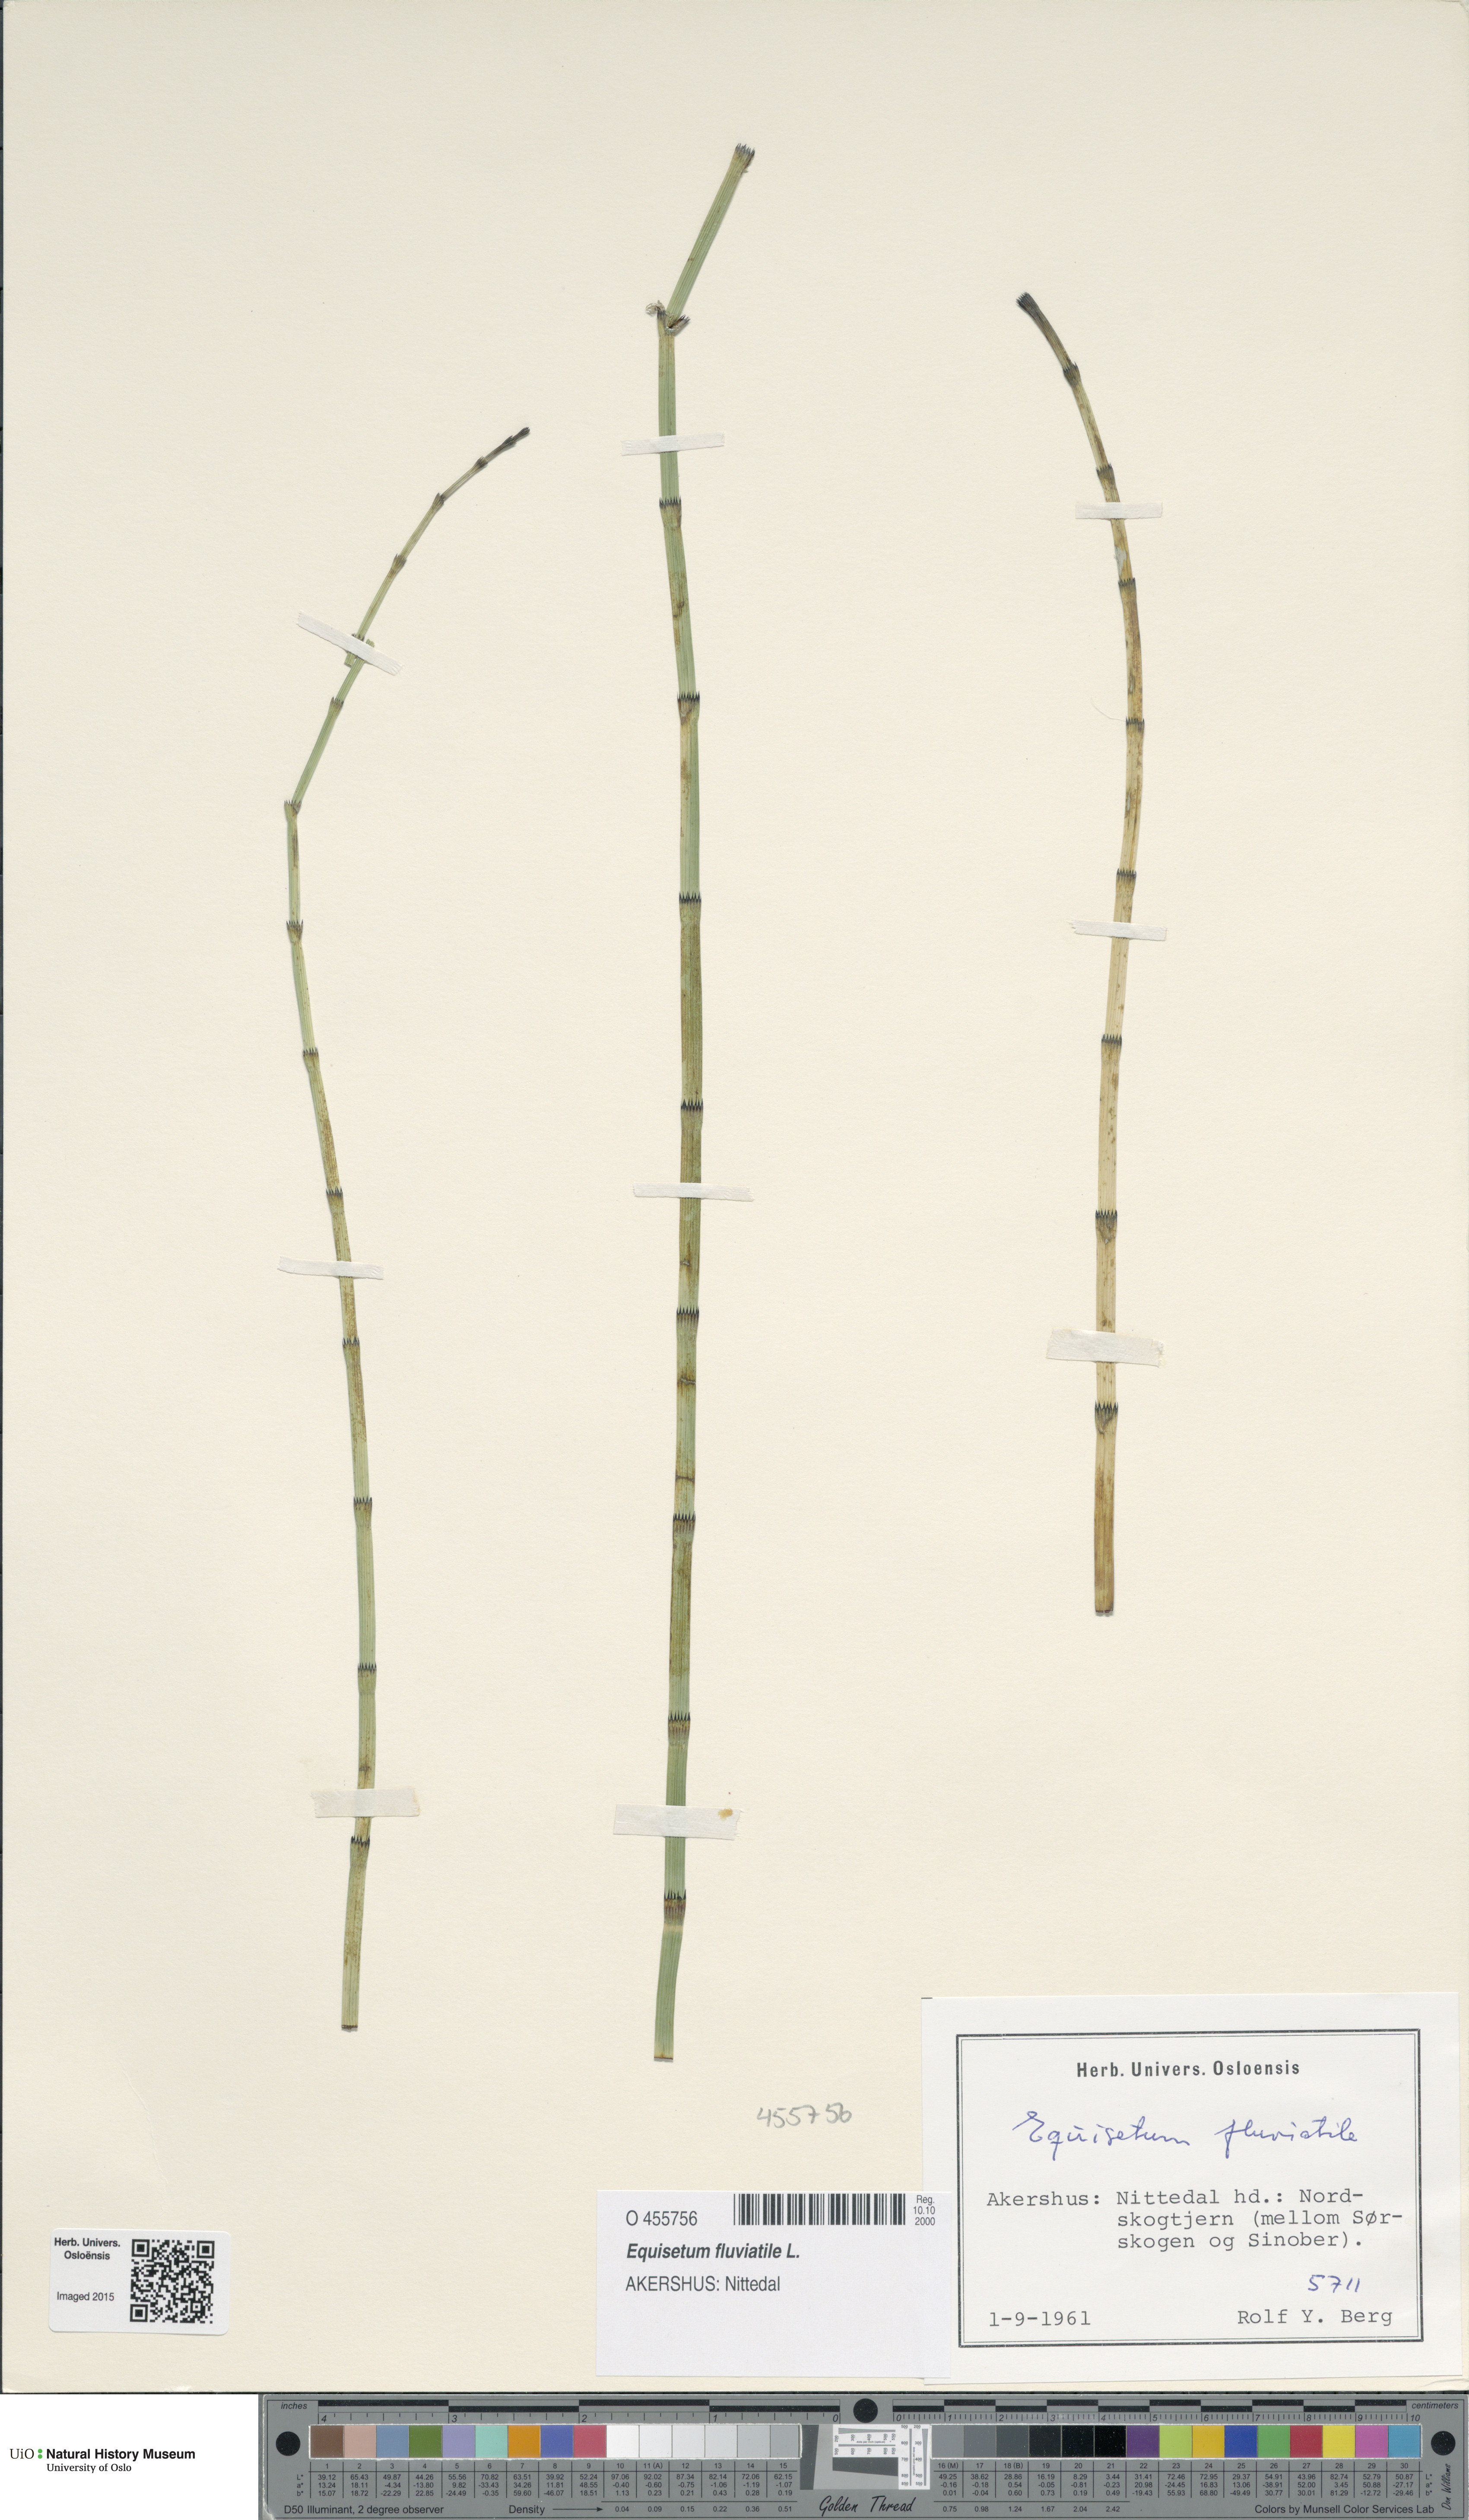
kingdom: Plantae
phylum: Tracheophyta
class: Polypodiopsida
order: Equisetales
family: Equisetaceae
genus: Equisetum
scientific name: Equisetum fluviatile
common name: Water horsetail
